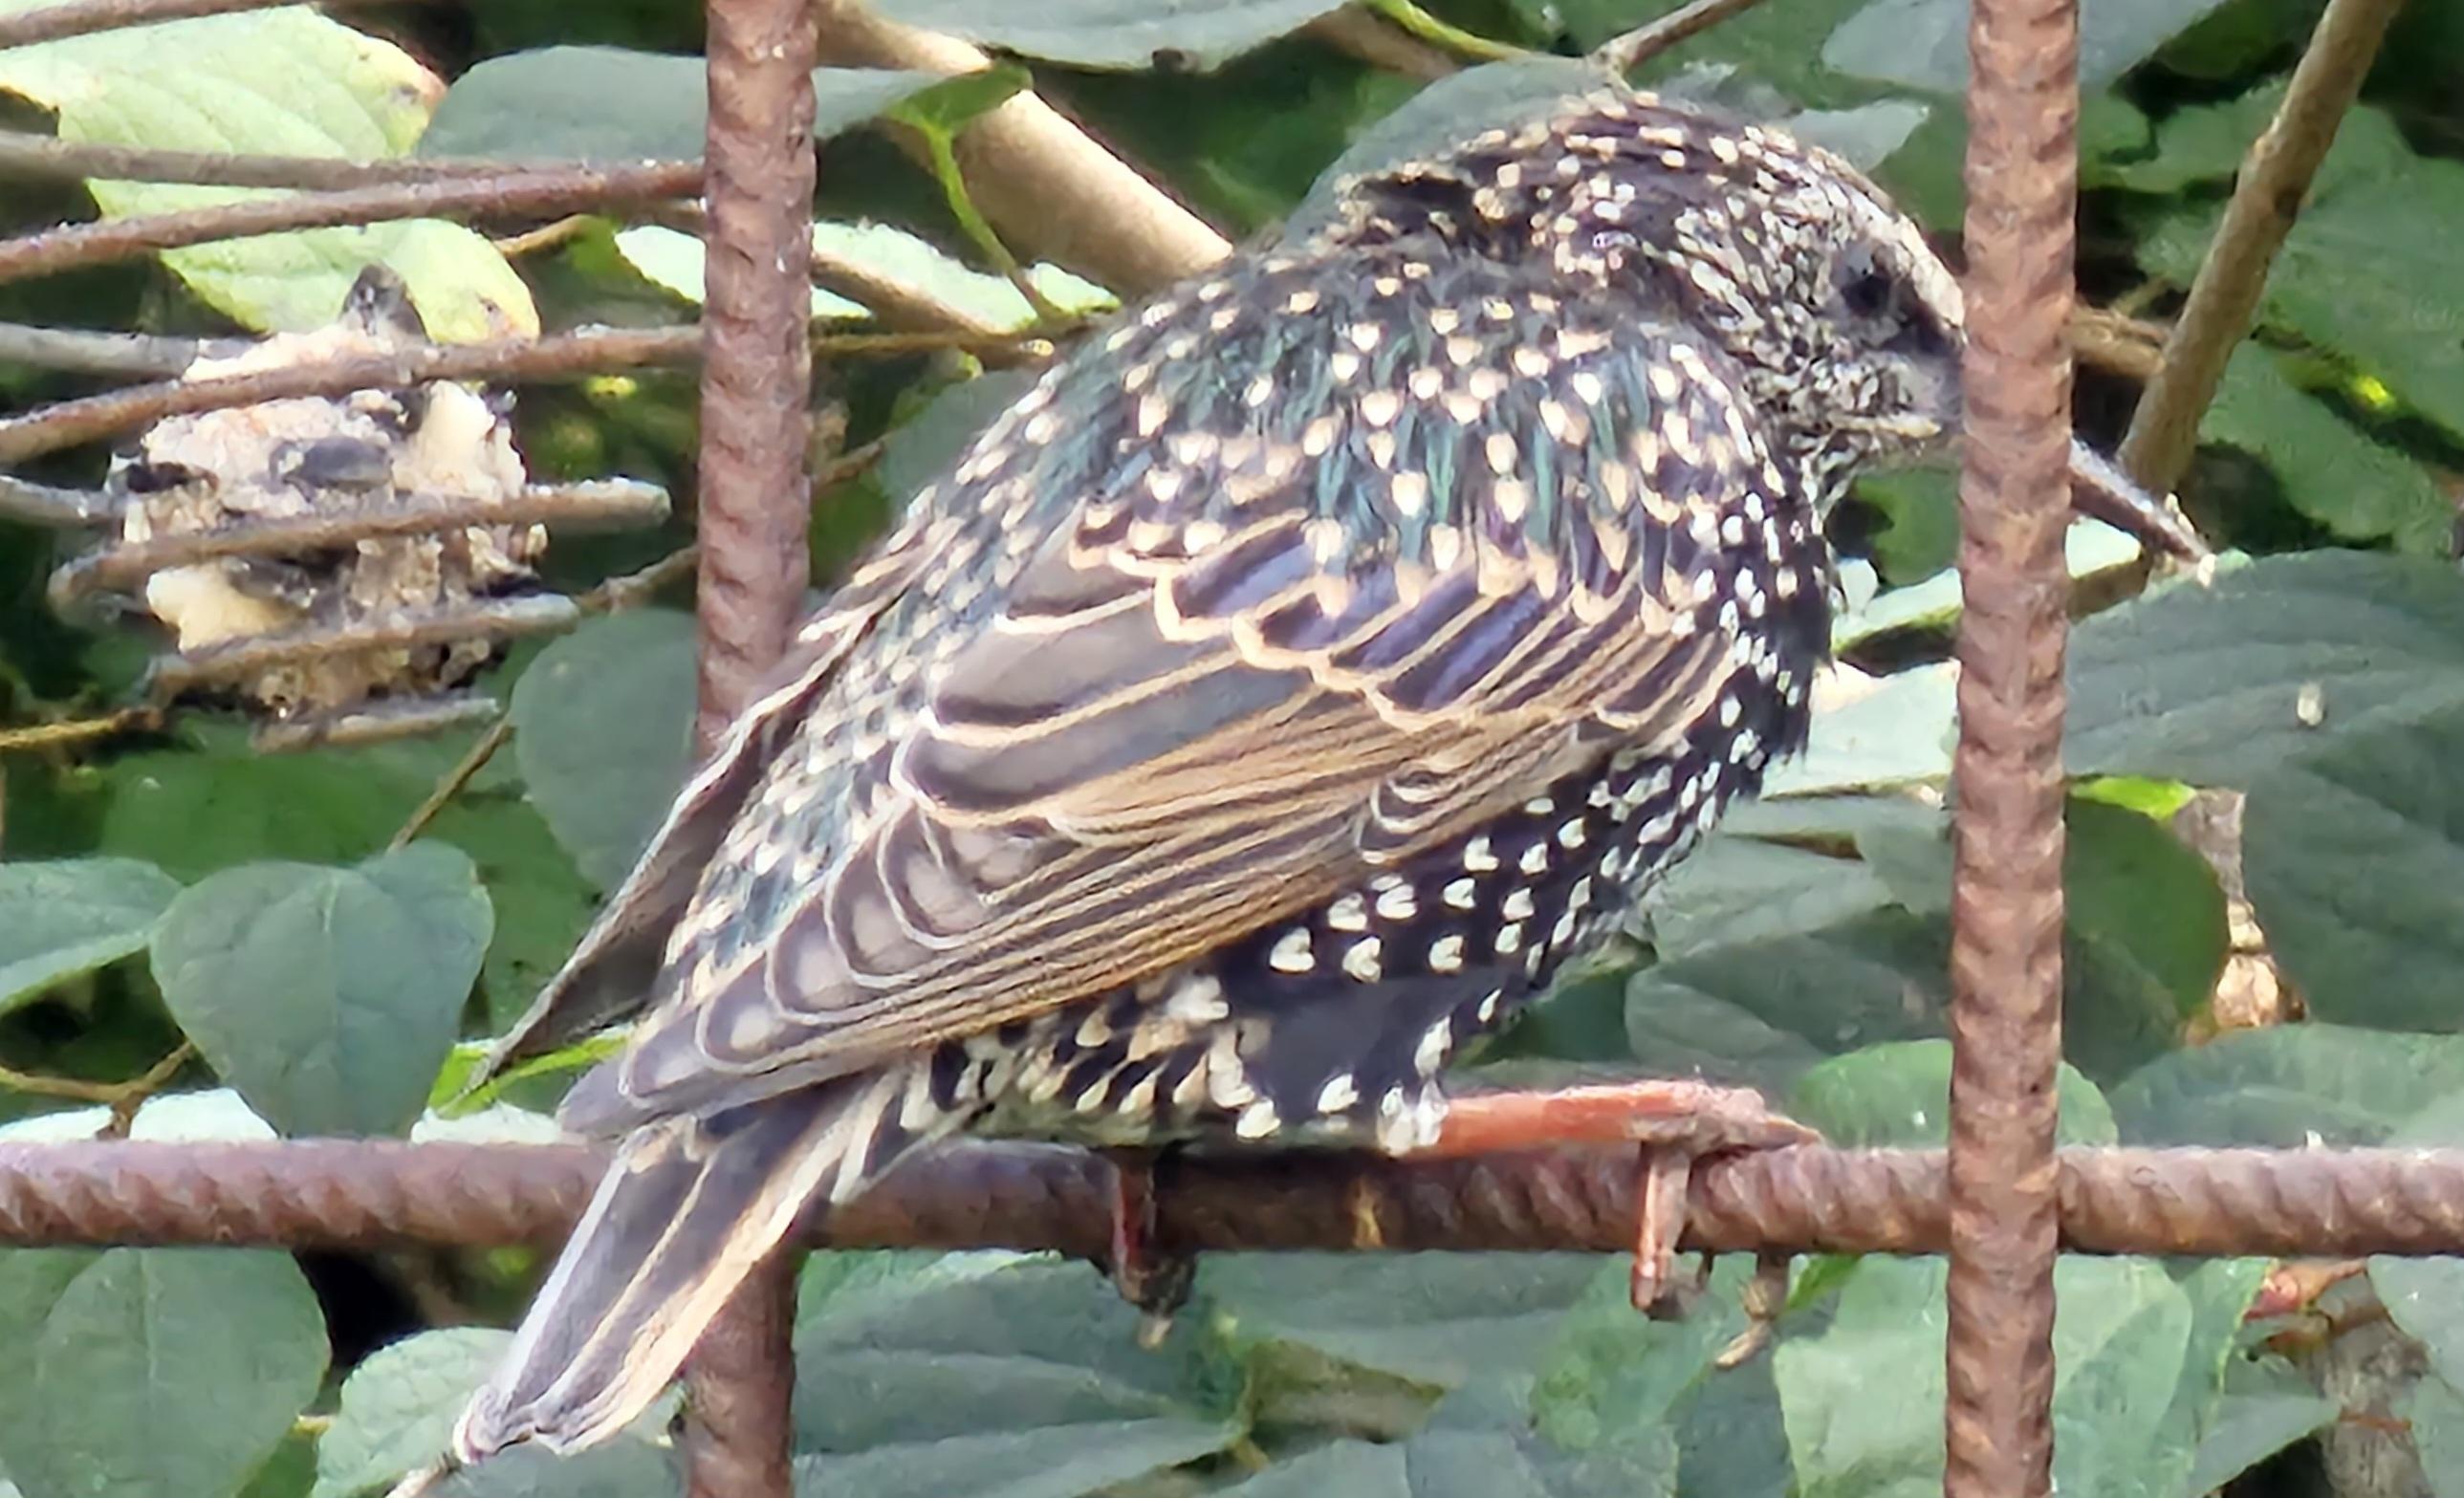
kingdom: Animalia
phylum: Chordata
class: Aves
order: Passeriformes
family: Sturnidae
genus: Sturnus
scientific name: Sturnus vulgaris
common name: Stær
